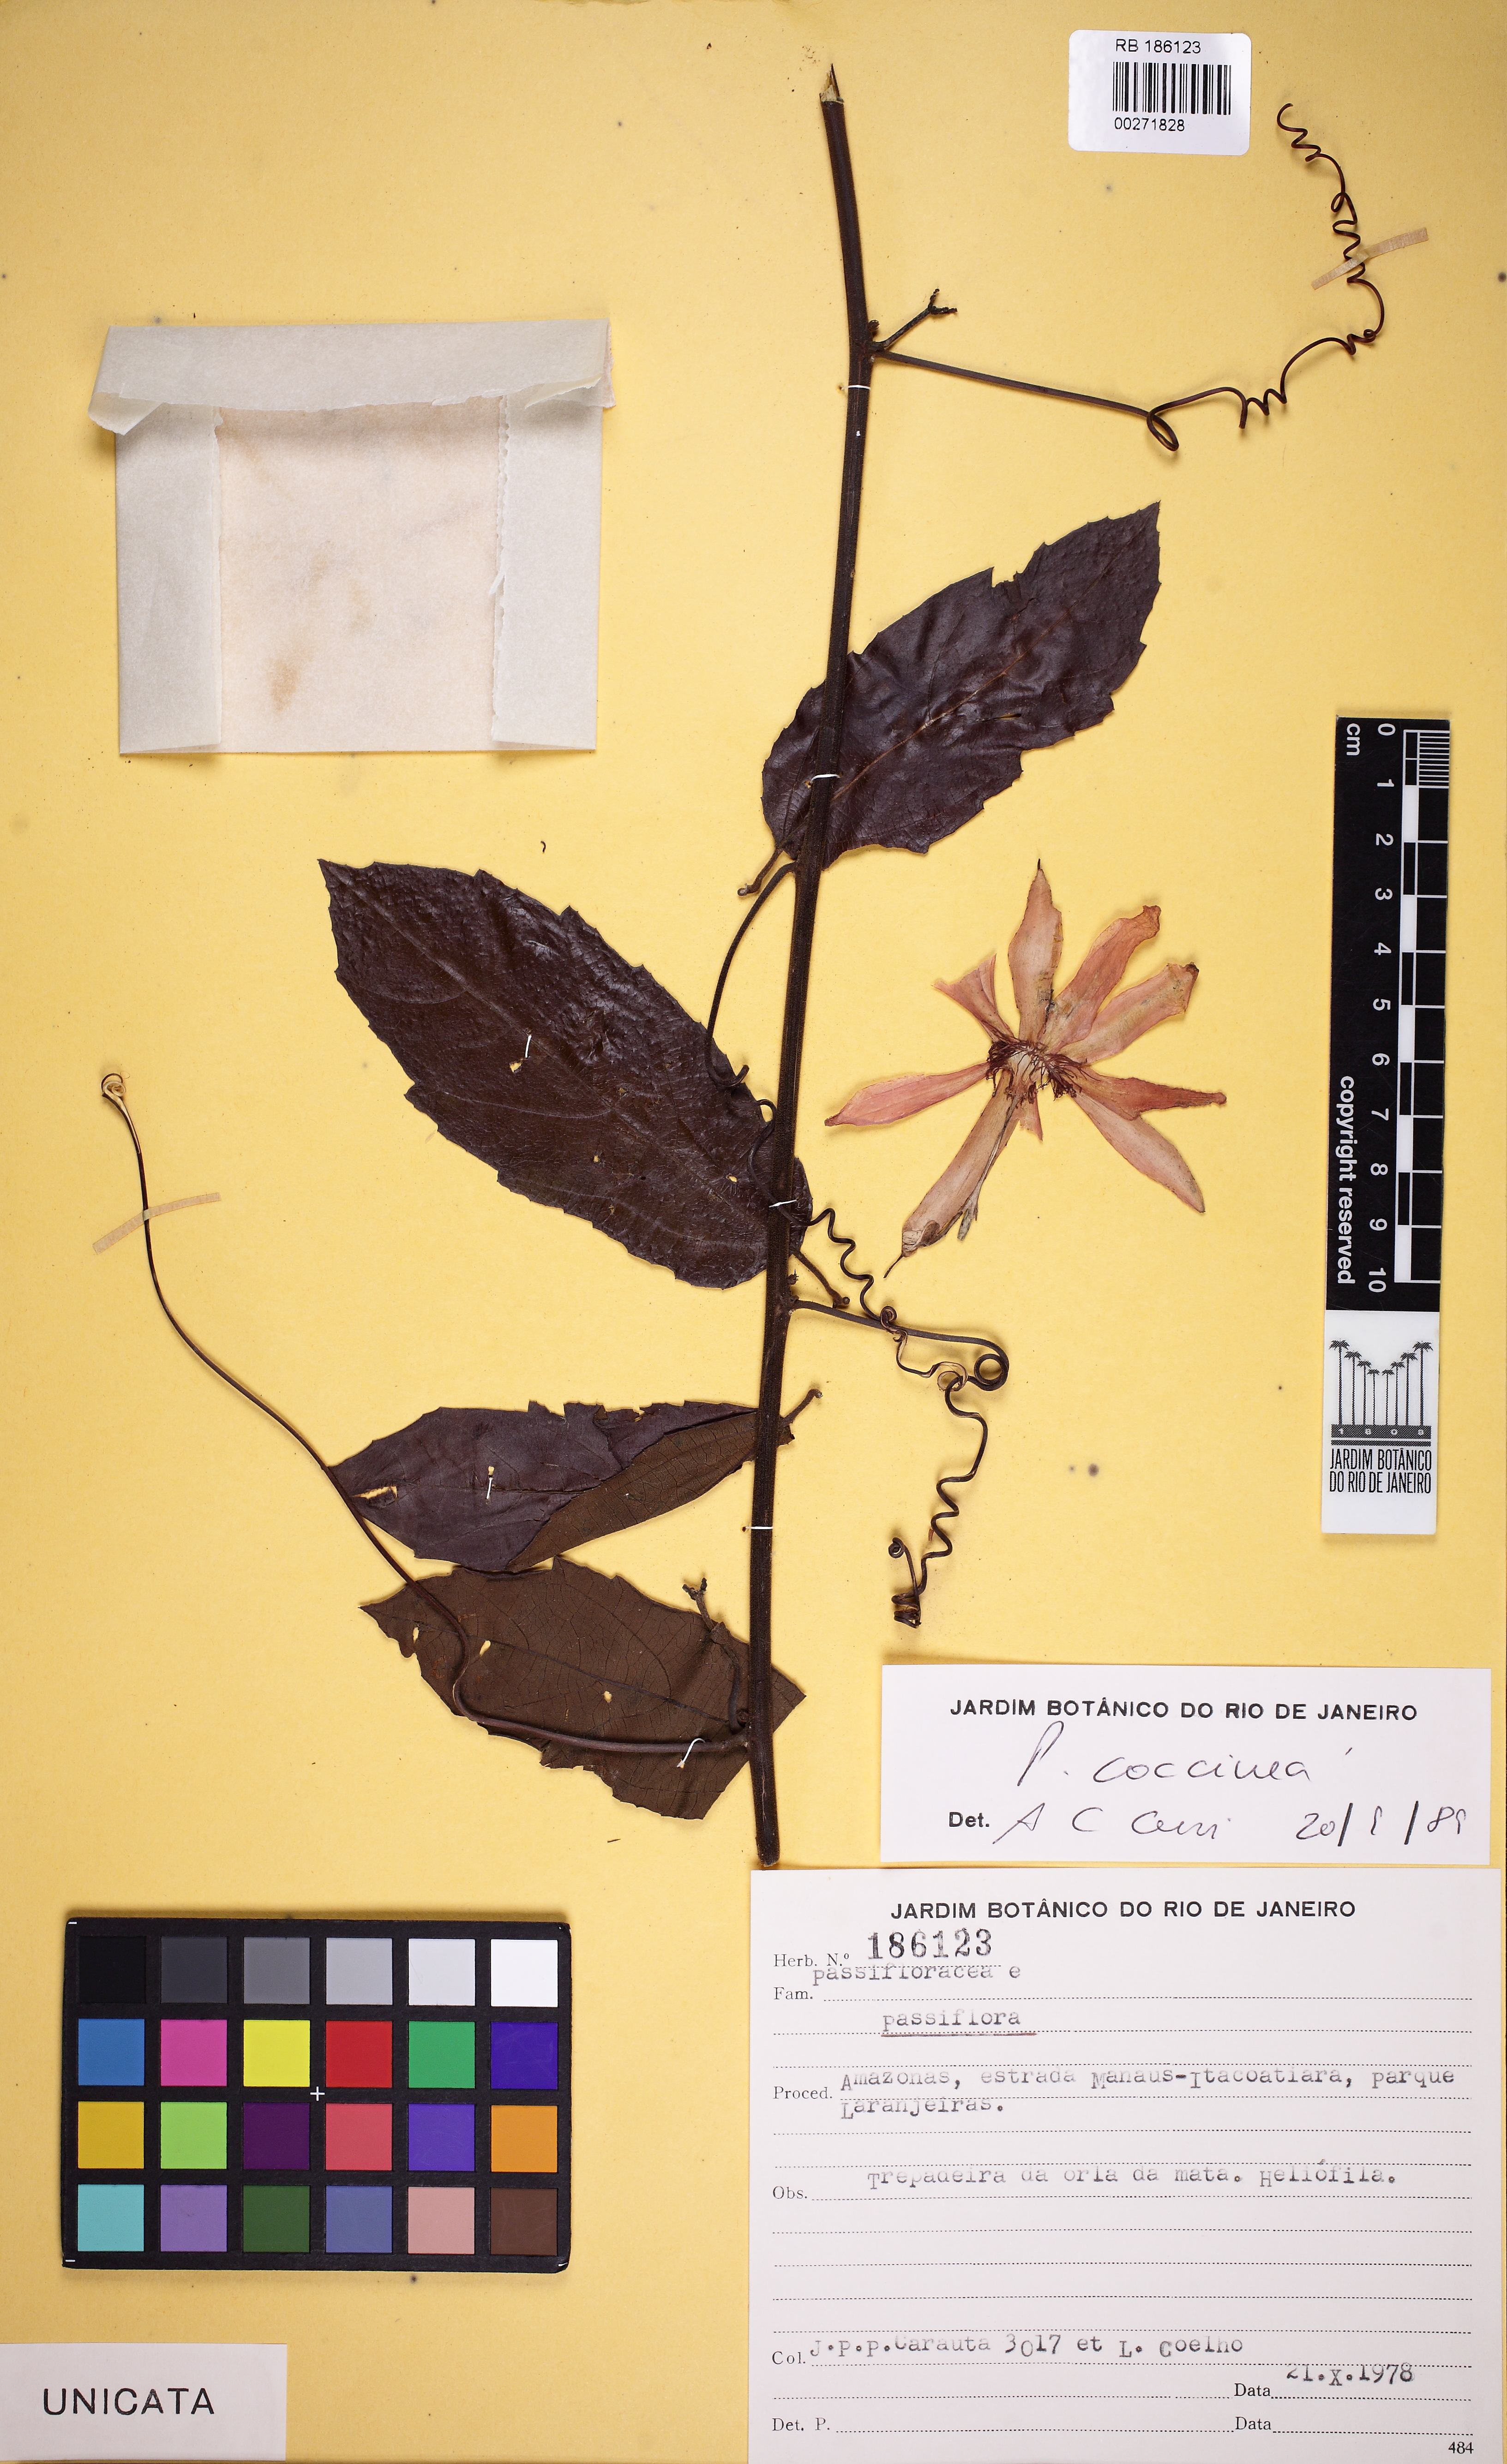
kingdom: Plantae
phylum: Tracheophyta
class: Magnoliopsida
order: Malpighiales
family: Passifloraceae
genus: Passiflora
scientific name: Passiflora quadriglandulosa
